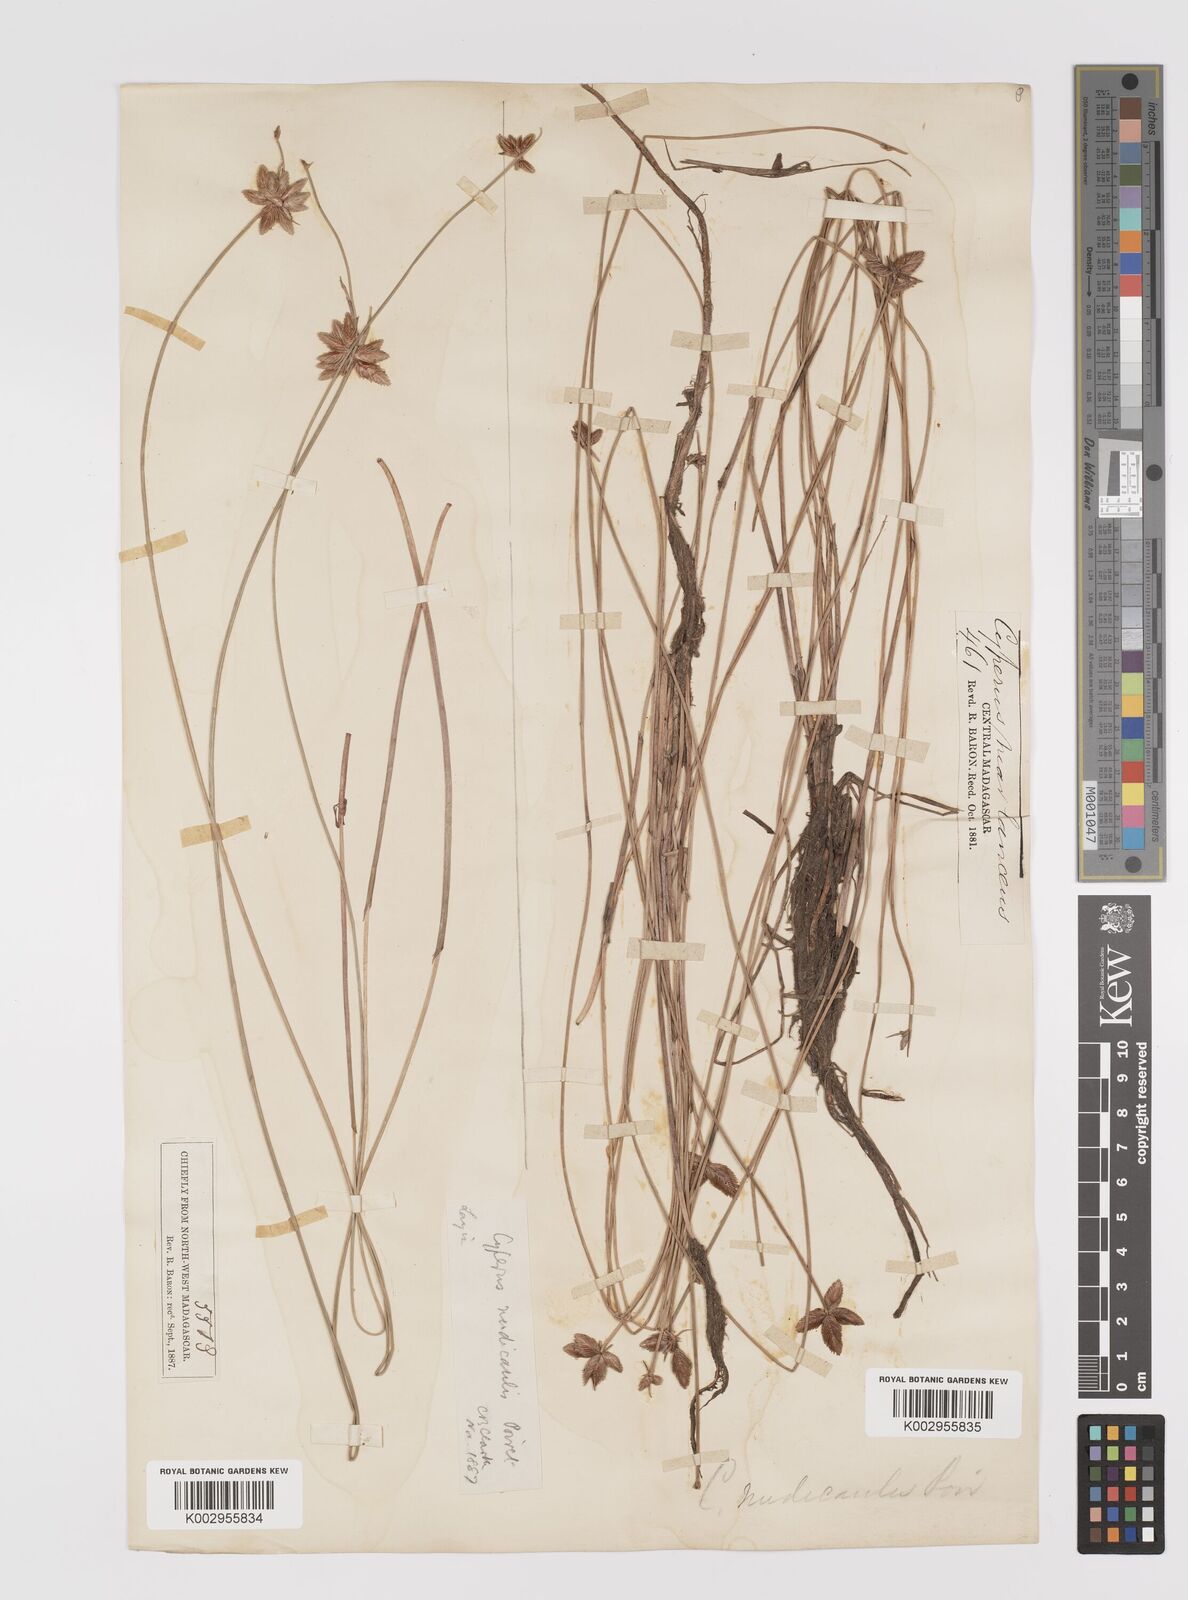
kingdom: Plantae
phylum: Tracheophyta
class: Liliopsida
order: Poales
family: Cyperaceae
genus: Cyperus
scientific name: Cyperus compressus
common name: Poorland flatsedge
